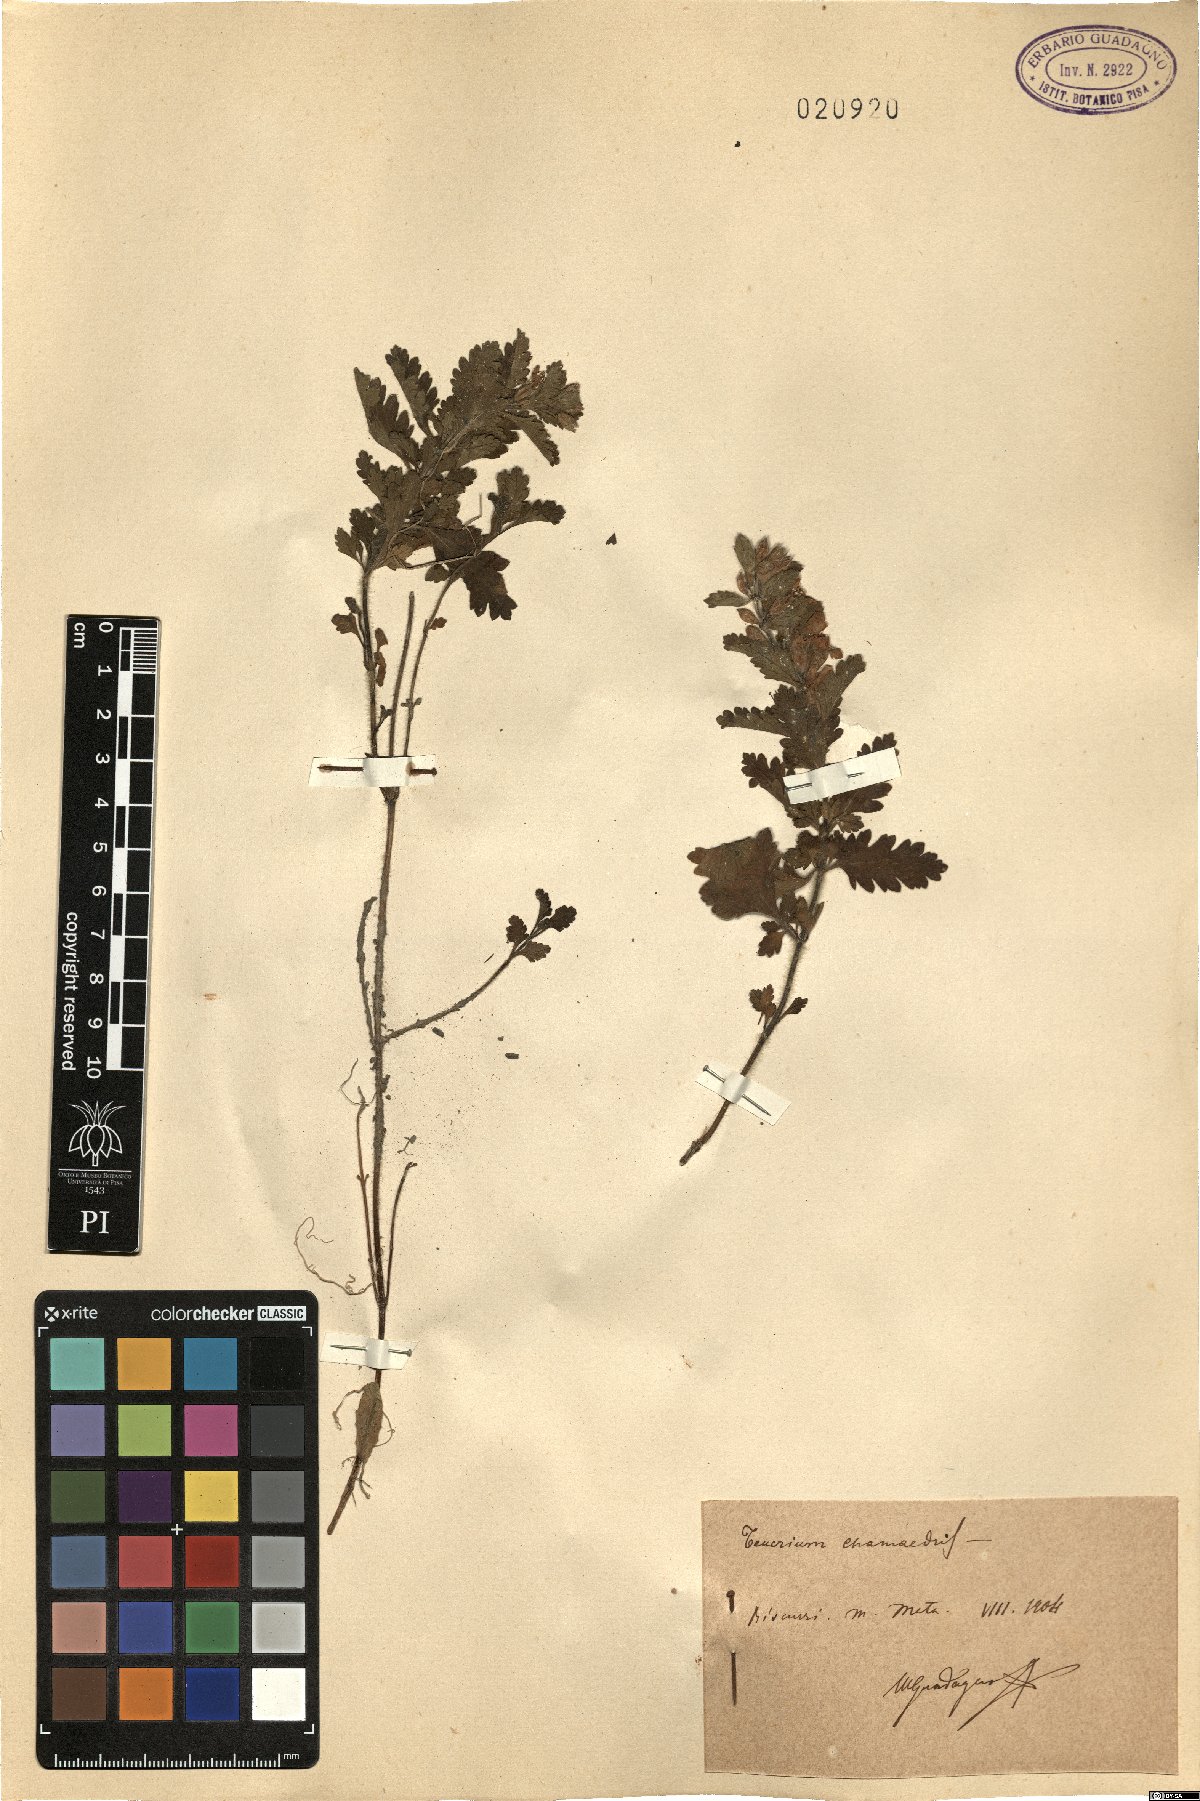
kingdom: Plantae
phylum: Tracheophyta
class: Magnoliopsida
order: Lamiales
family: Lamiaceae
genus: Teucrium
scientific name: Teucrium chamaedrys
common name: Wall germander
